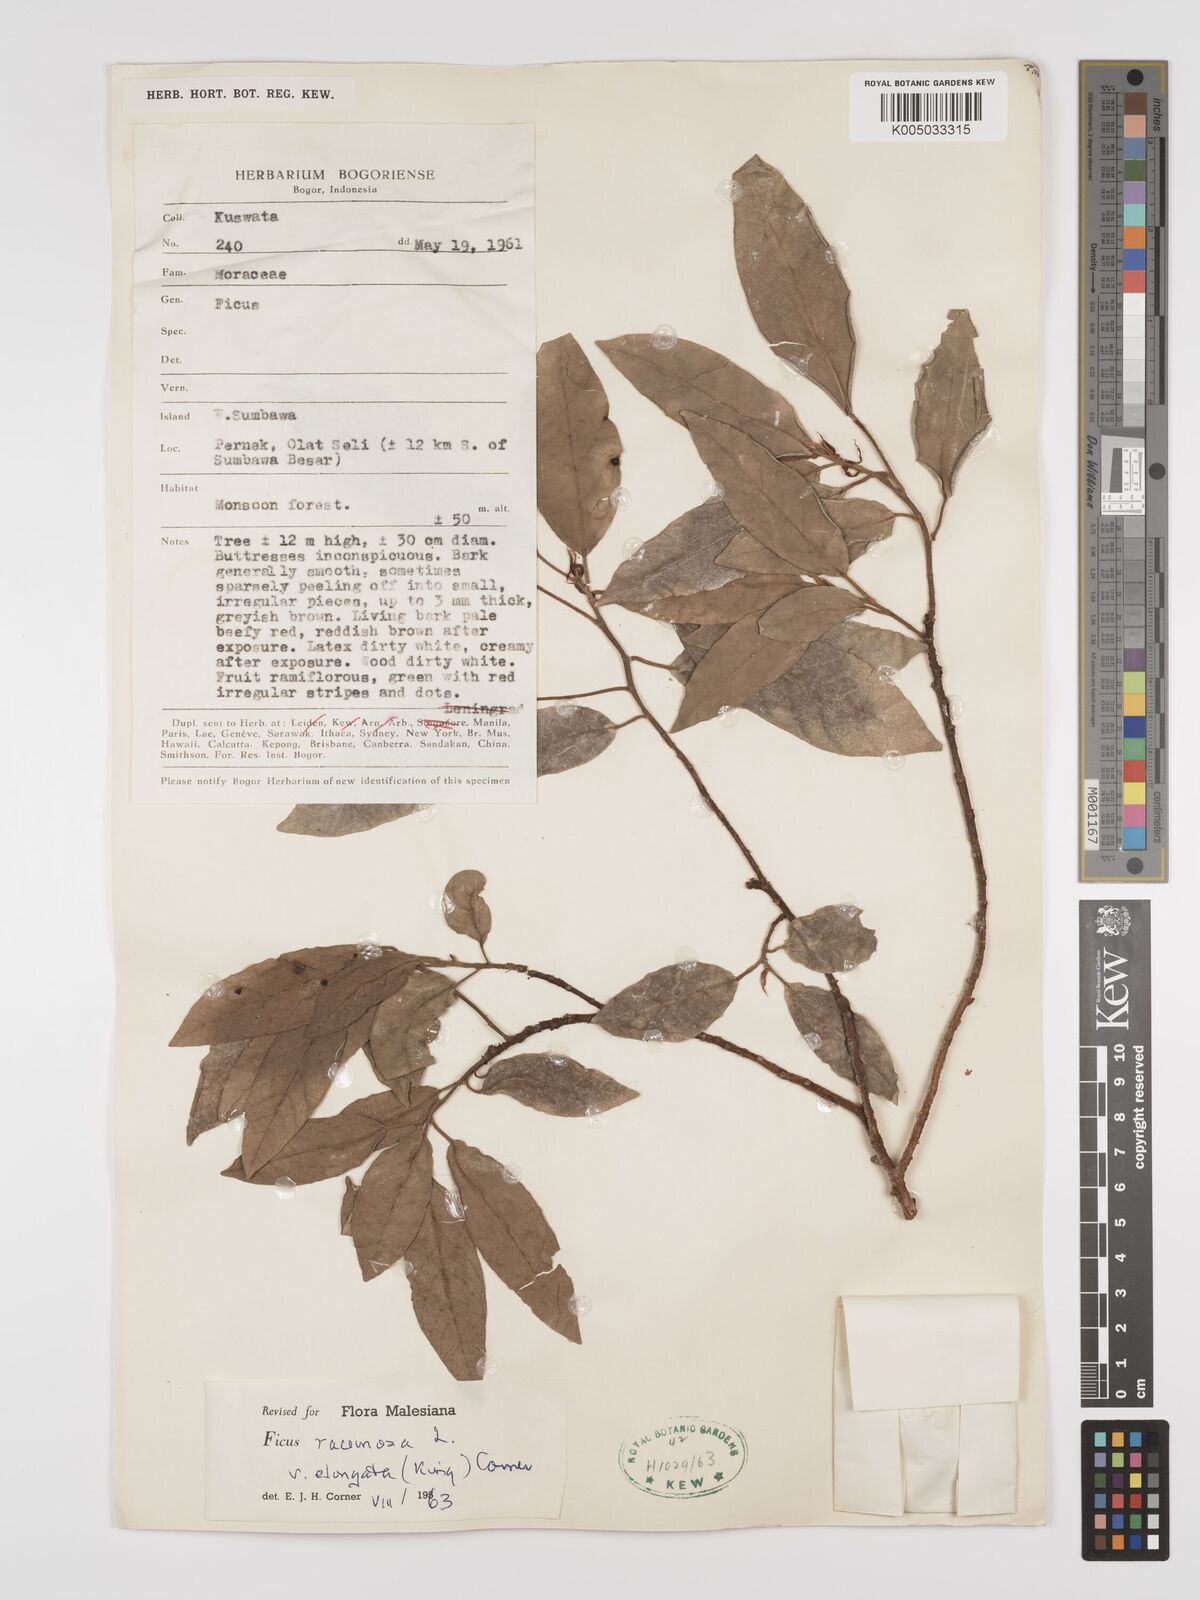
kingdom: Plantae
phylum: Tracheophyta
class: Magnoliopsida
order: Rosales
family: Moraceae
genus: Ficus
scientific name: Ficus
